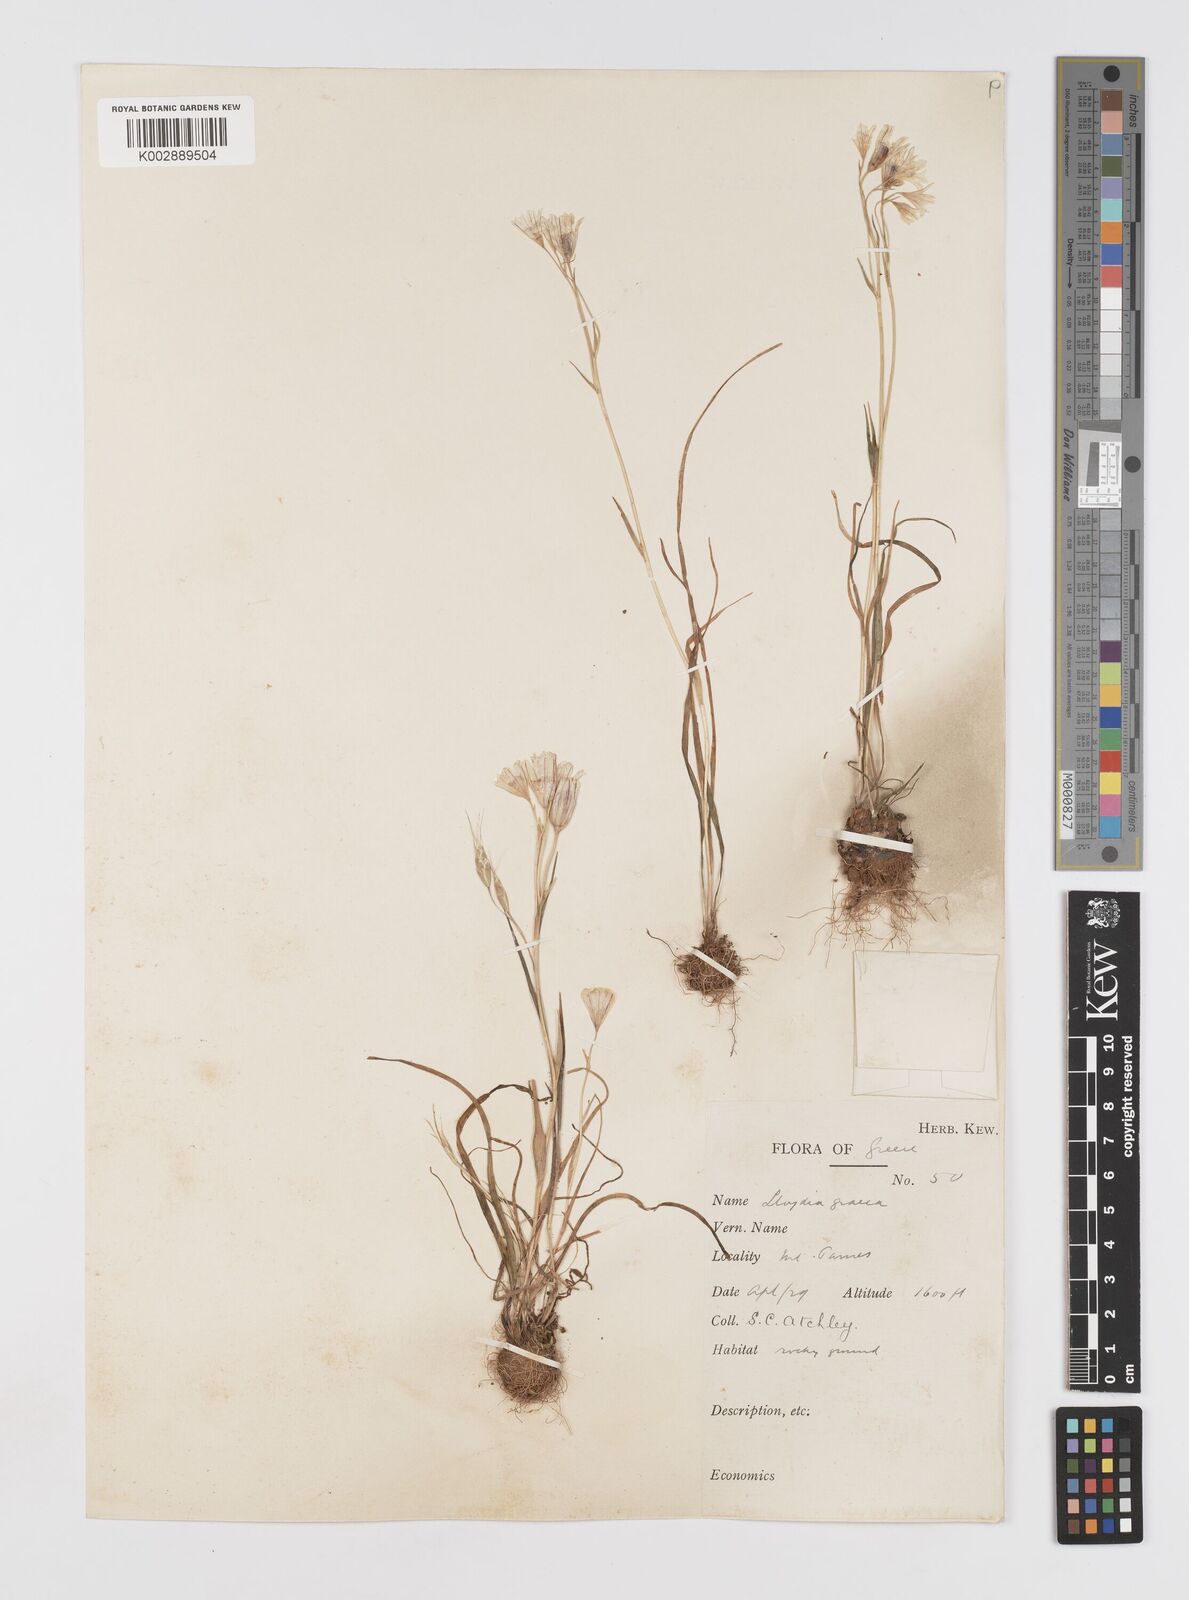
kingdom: Plantae
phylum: Tracheophyta
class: Liliopsida
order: Liliales
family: Liliaceae
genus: Gagea
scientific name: Gagea graeca
